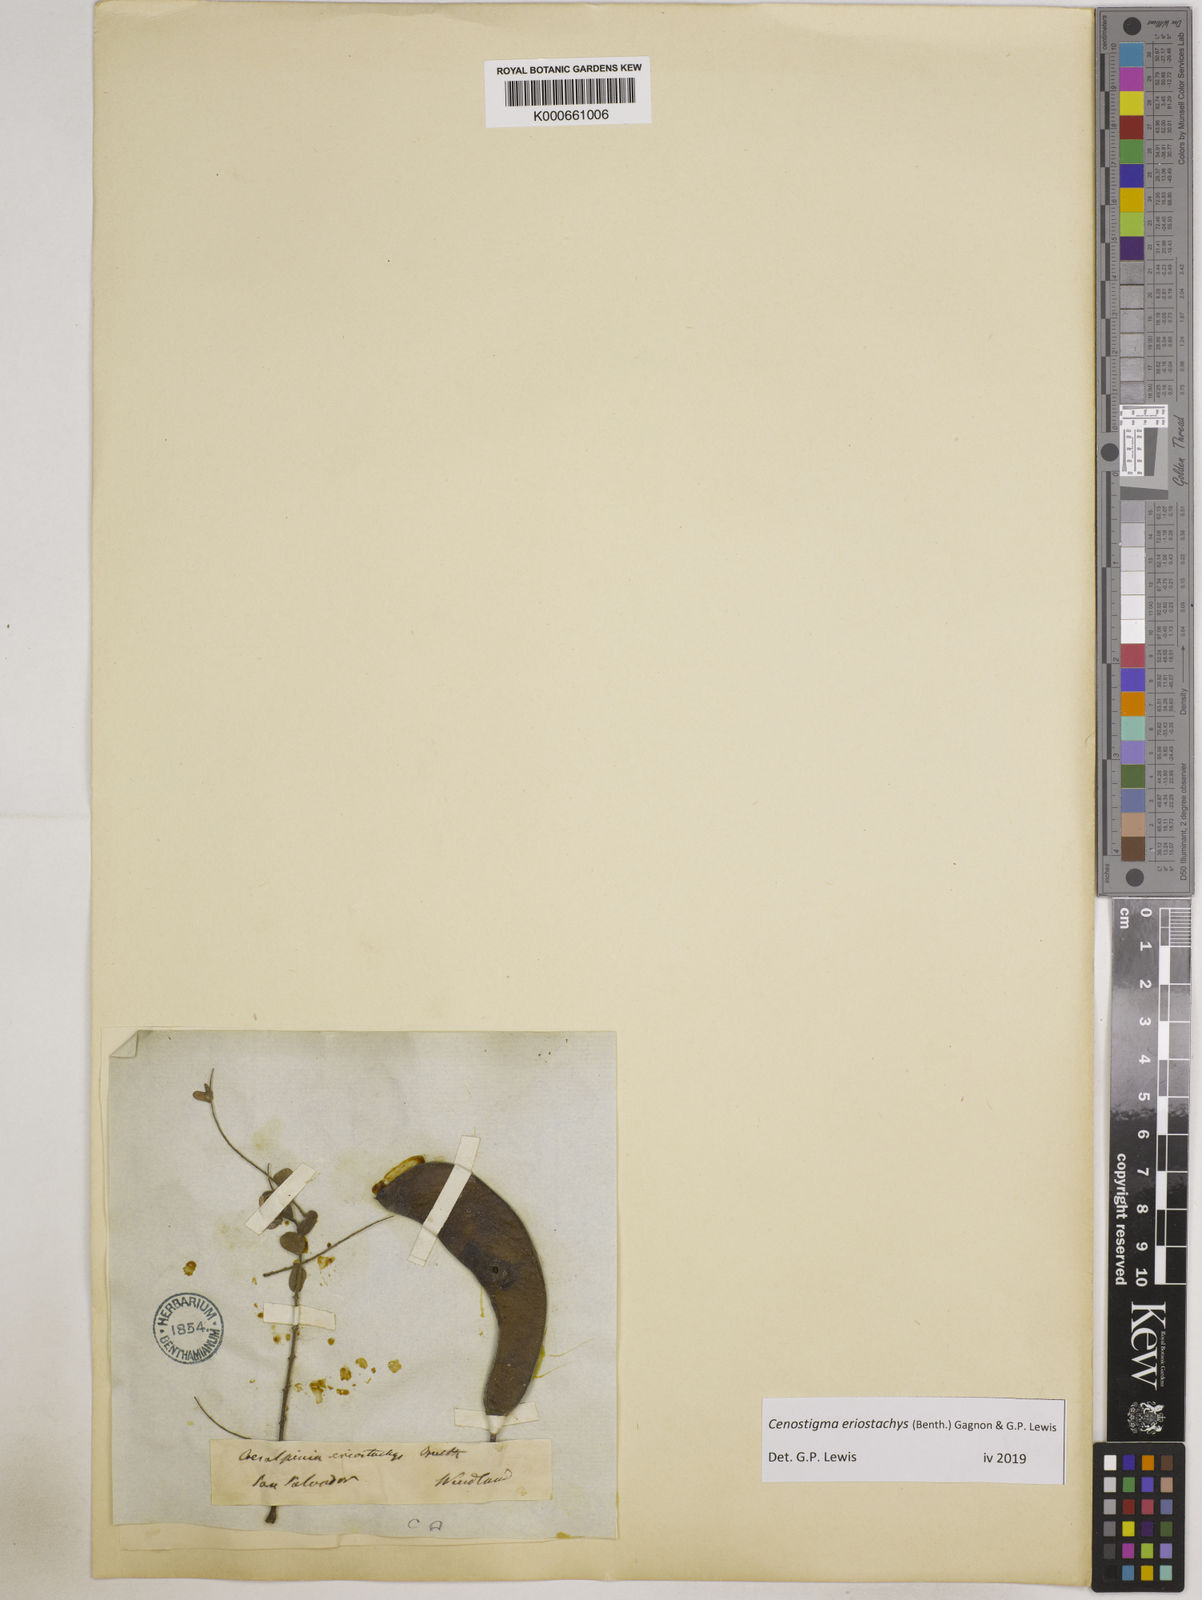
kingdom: Plantae
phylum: Tracheophyta
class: Magnoliopsida
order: Fabales
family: Fabaceae
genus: Cenostigma
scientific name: Cenostigma eriostachys
